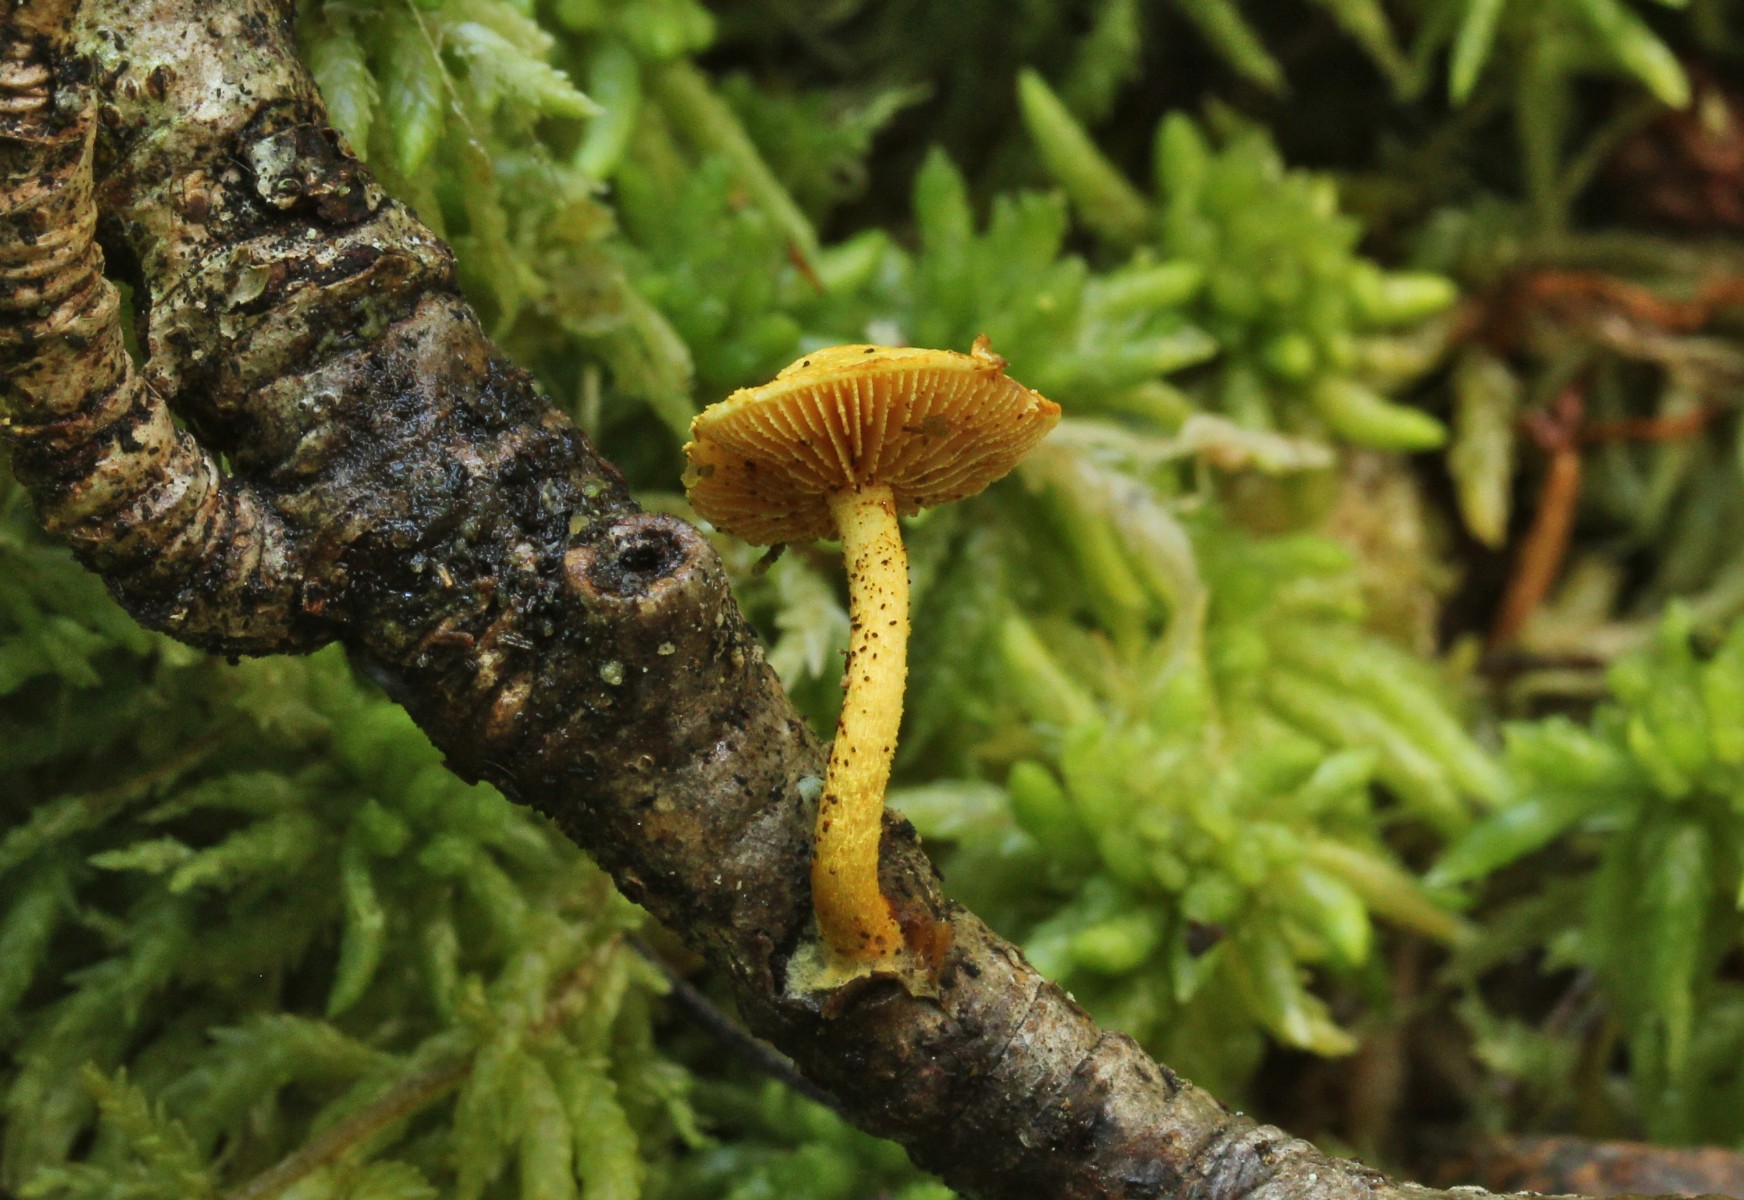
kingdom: Fungi
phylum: Basidiomycota
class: Agaricomycetes
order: Agaricales
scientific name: Agaricales
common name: champignonordenen
